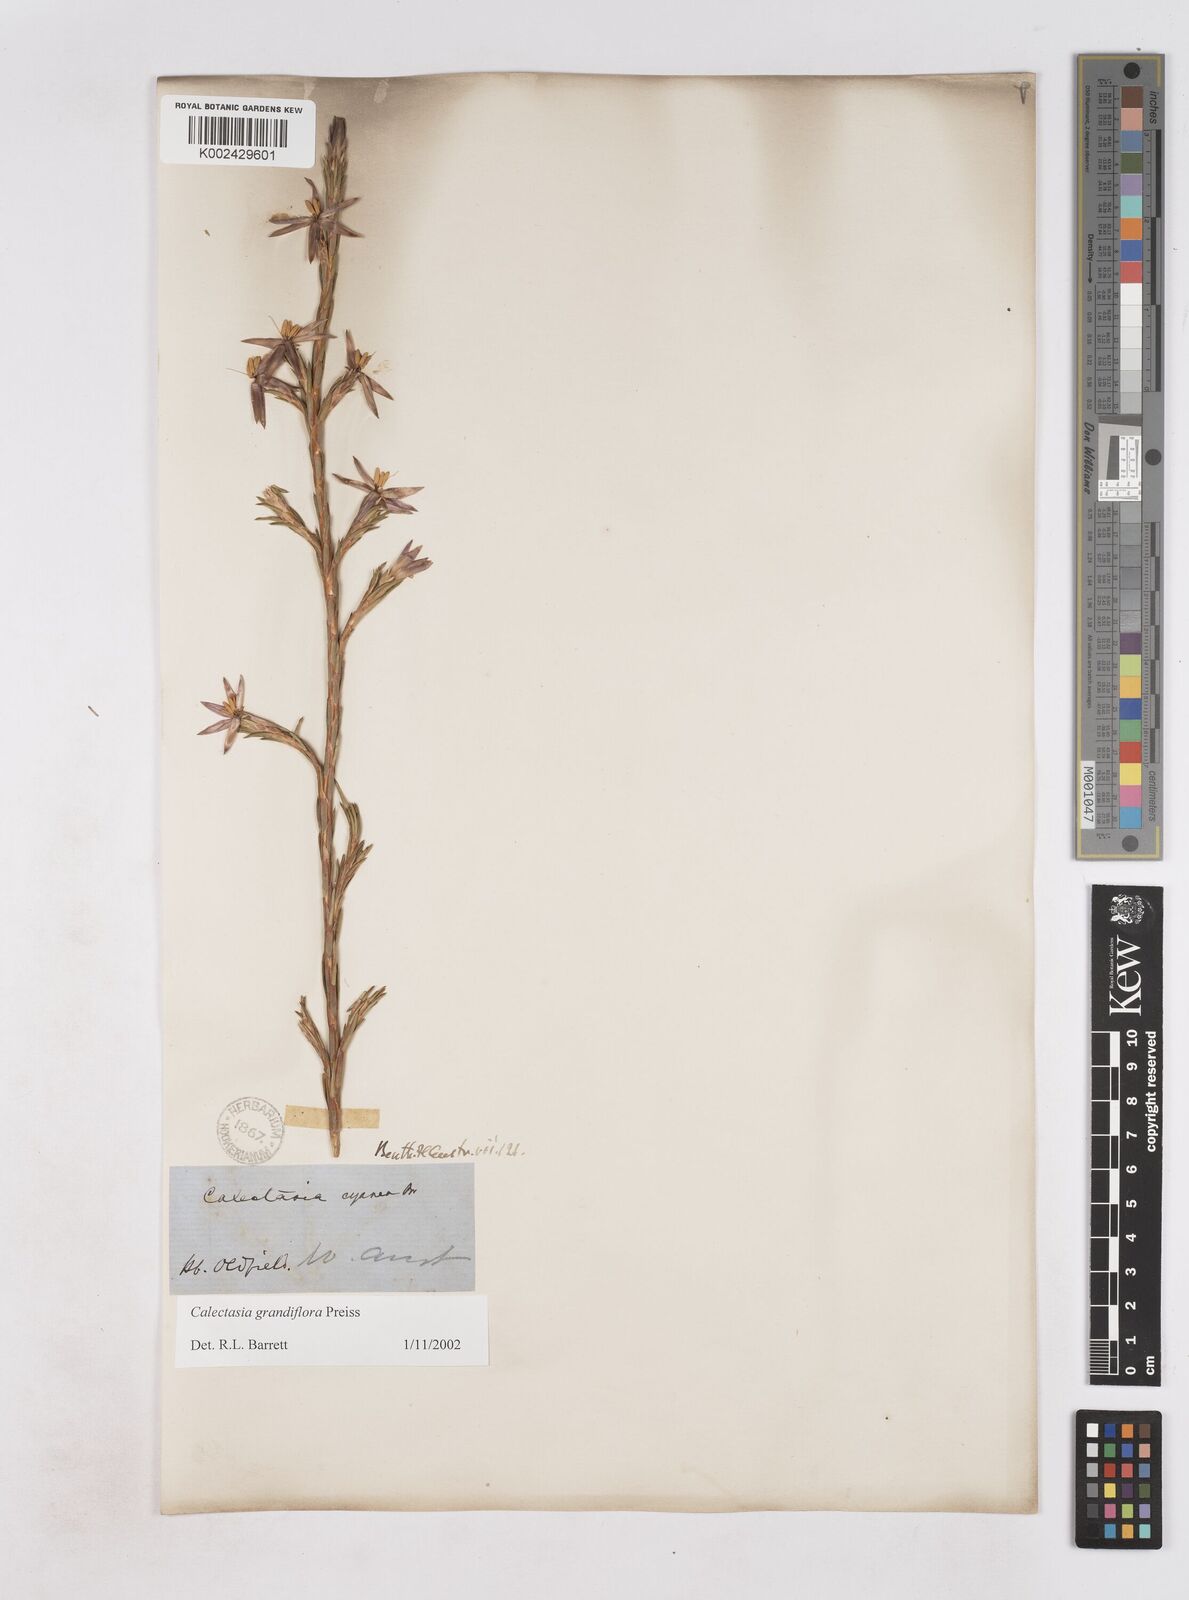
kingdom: Plantae
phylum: Tracheophyta
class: Liliopsida
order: Arecales
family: Dasypogonaceae
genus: Calectasia
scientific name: Calectasia grandiflora
